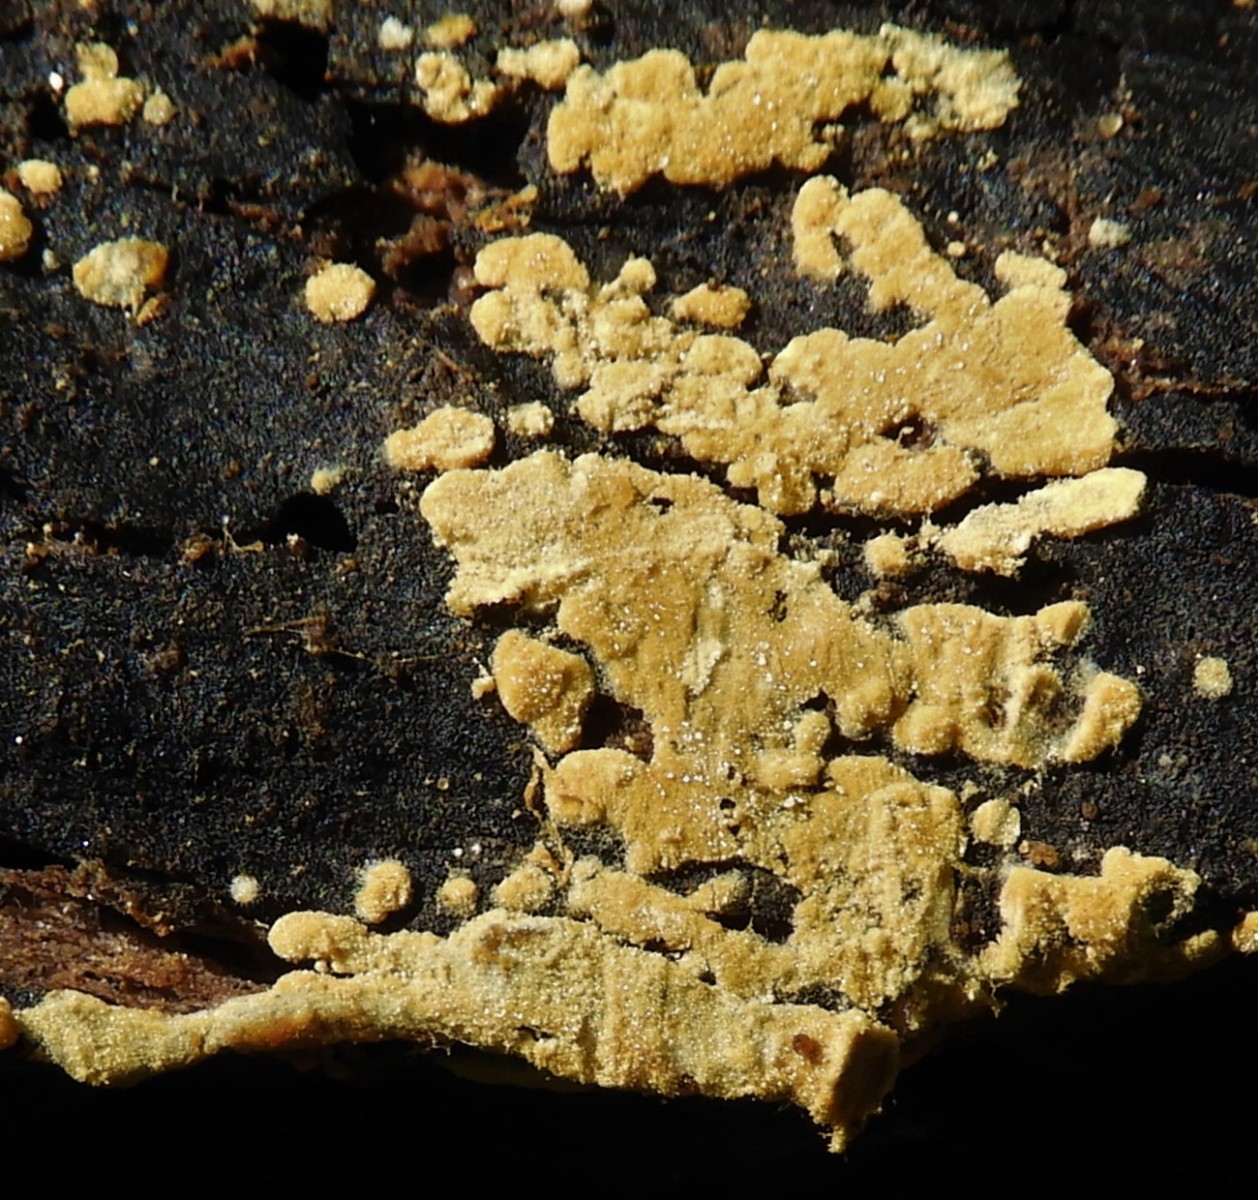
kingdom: Fungi
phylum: Basidiomycota
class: Agaricomycetes
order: Cantharellales
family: Botryobasidiaceae
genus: Botryobasidium
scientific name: Botryobasidium aureum
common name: gylden spindhinde
